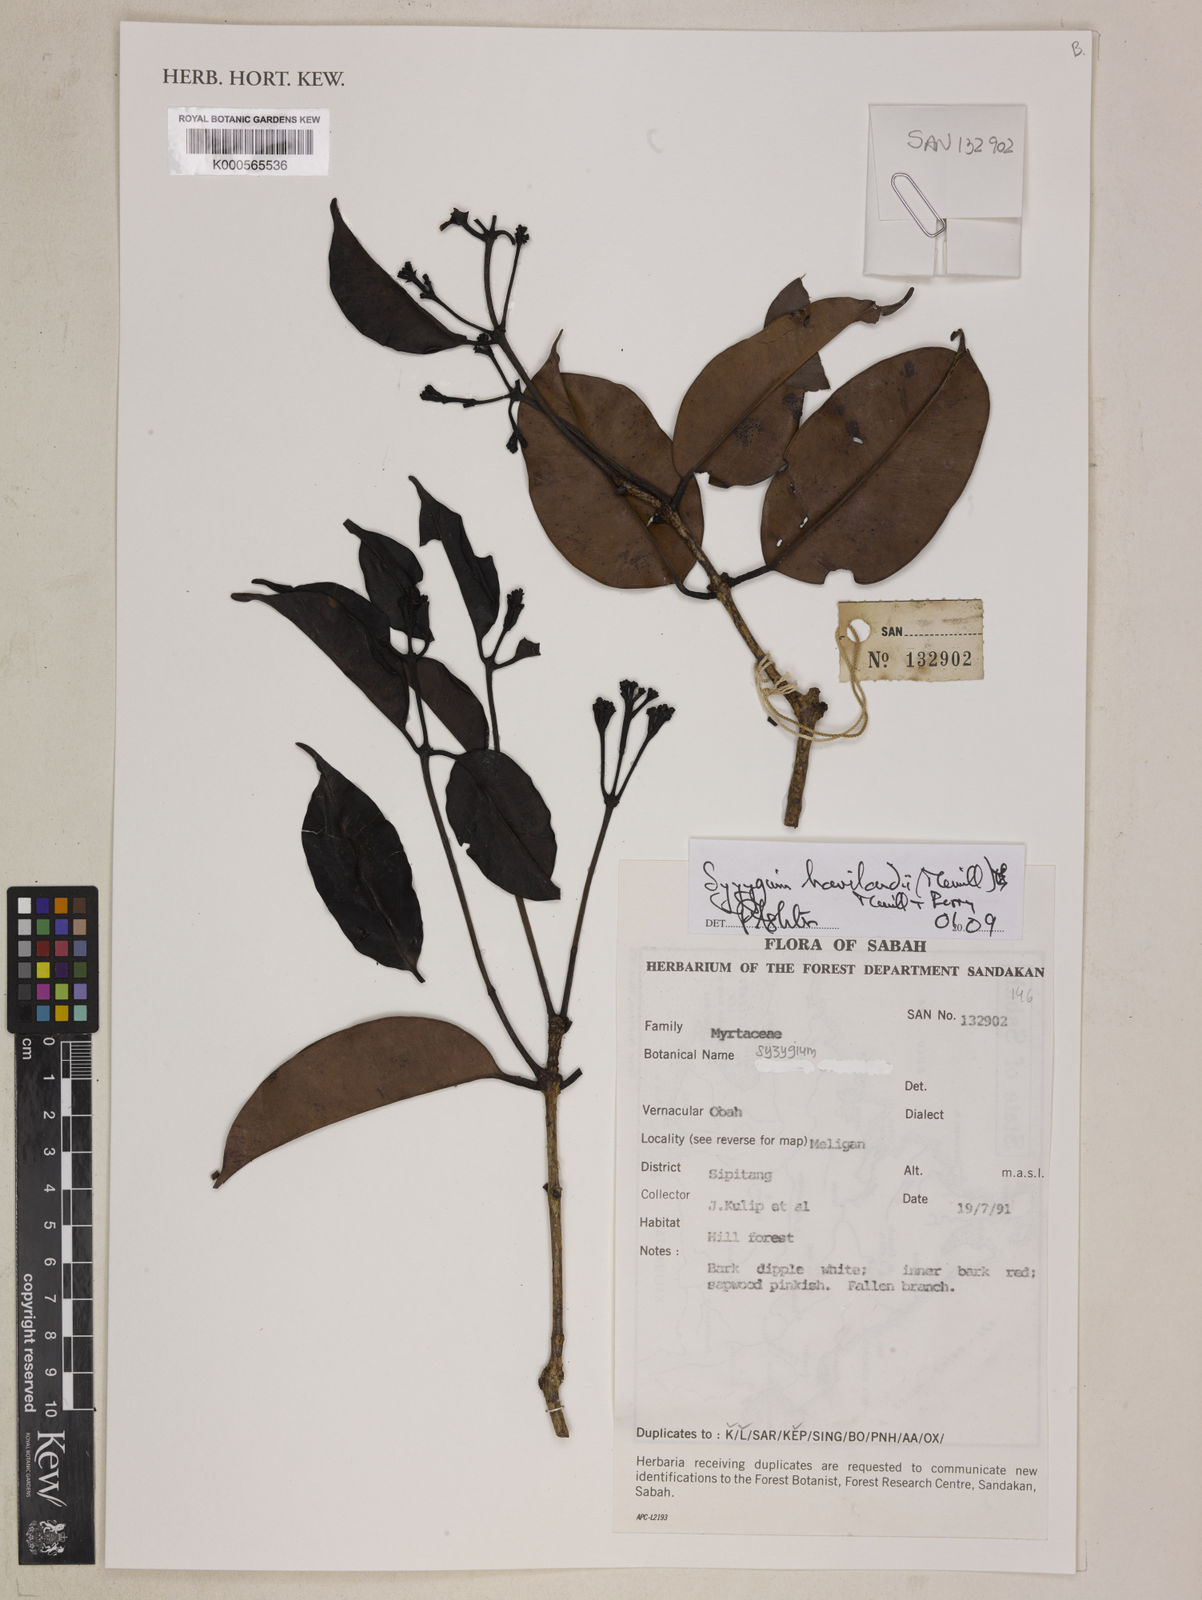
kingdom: Plantae
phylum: Tracheophyta
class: Magnoliopsida
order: Myrtales
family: Myrtaceae
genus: Syzygium
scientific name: Syzygium havilandii
